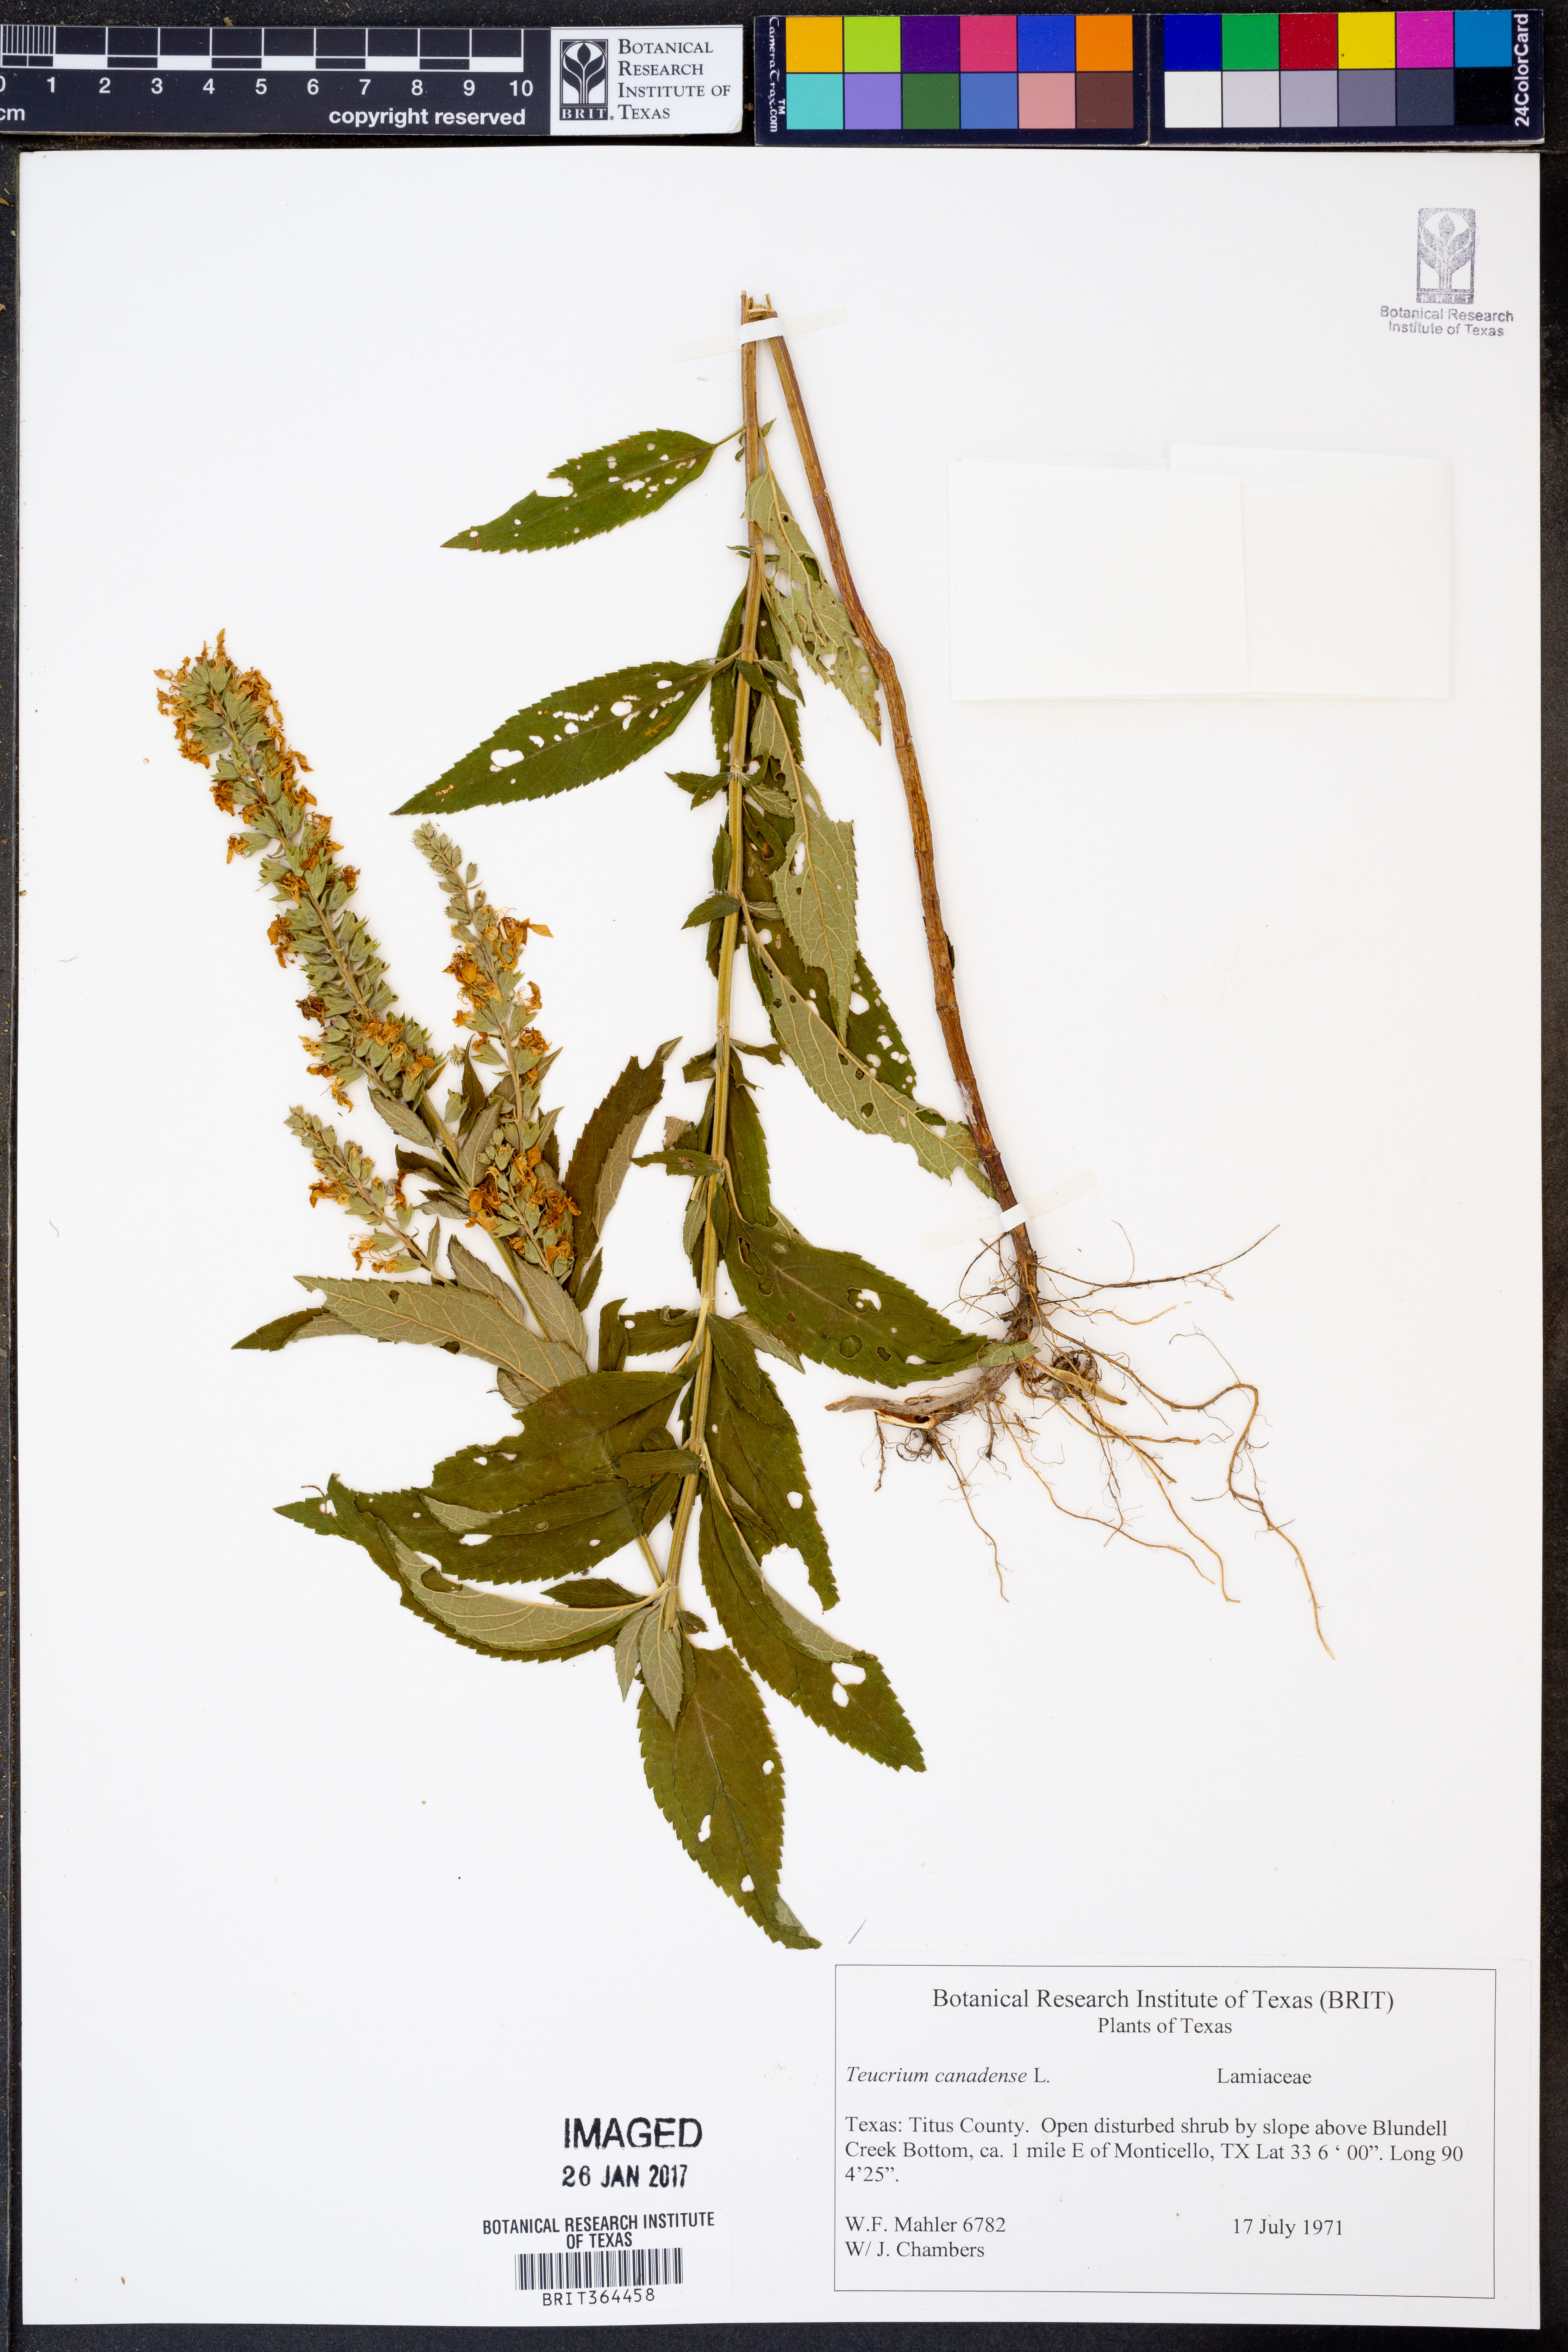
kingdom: Plantae
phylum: Tracheophyta
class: Magnoliopsida
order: Lamiales
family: Lamiaceae
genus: Teucrium
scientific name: Teucrium canadense
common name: American germander
